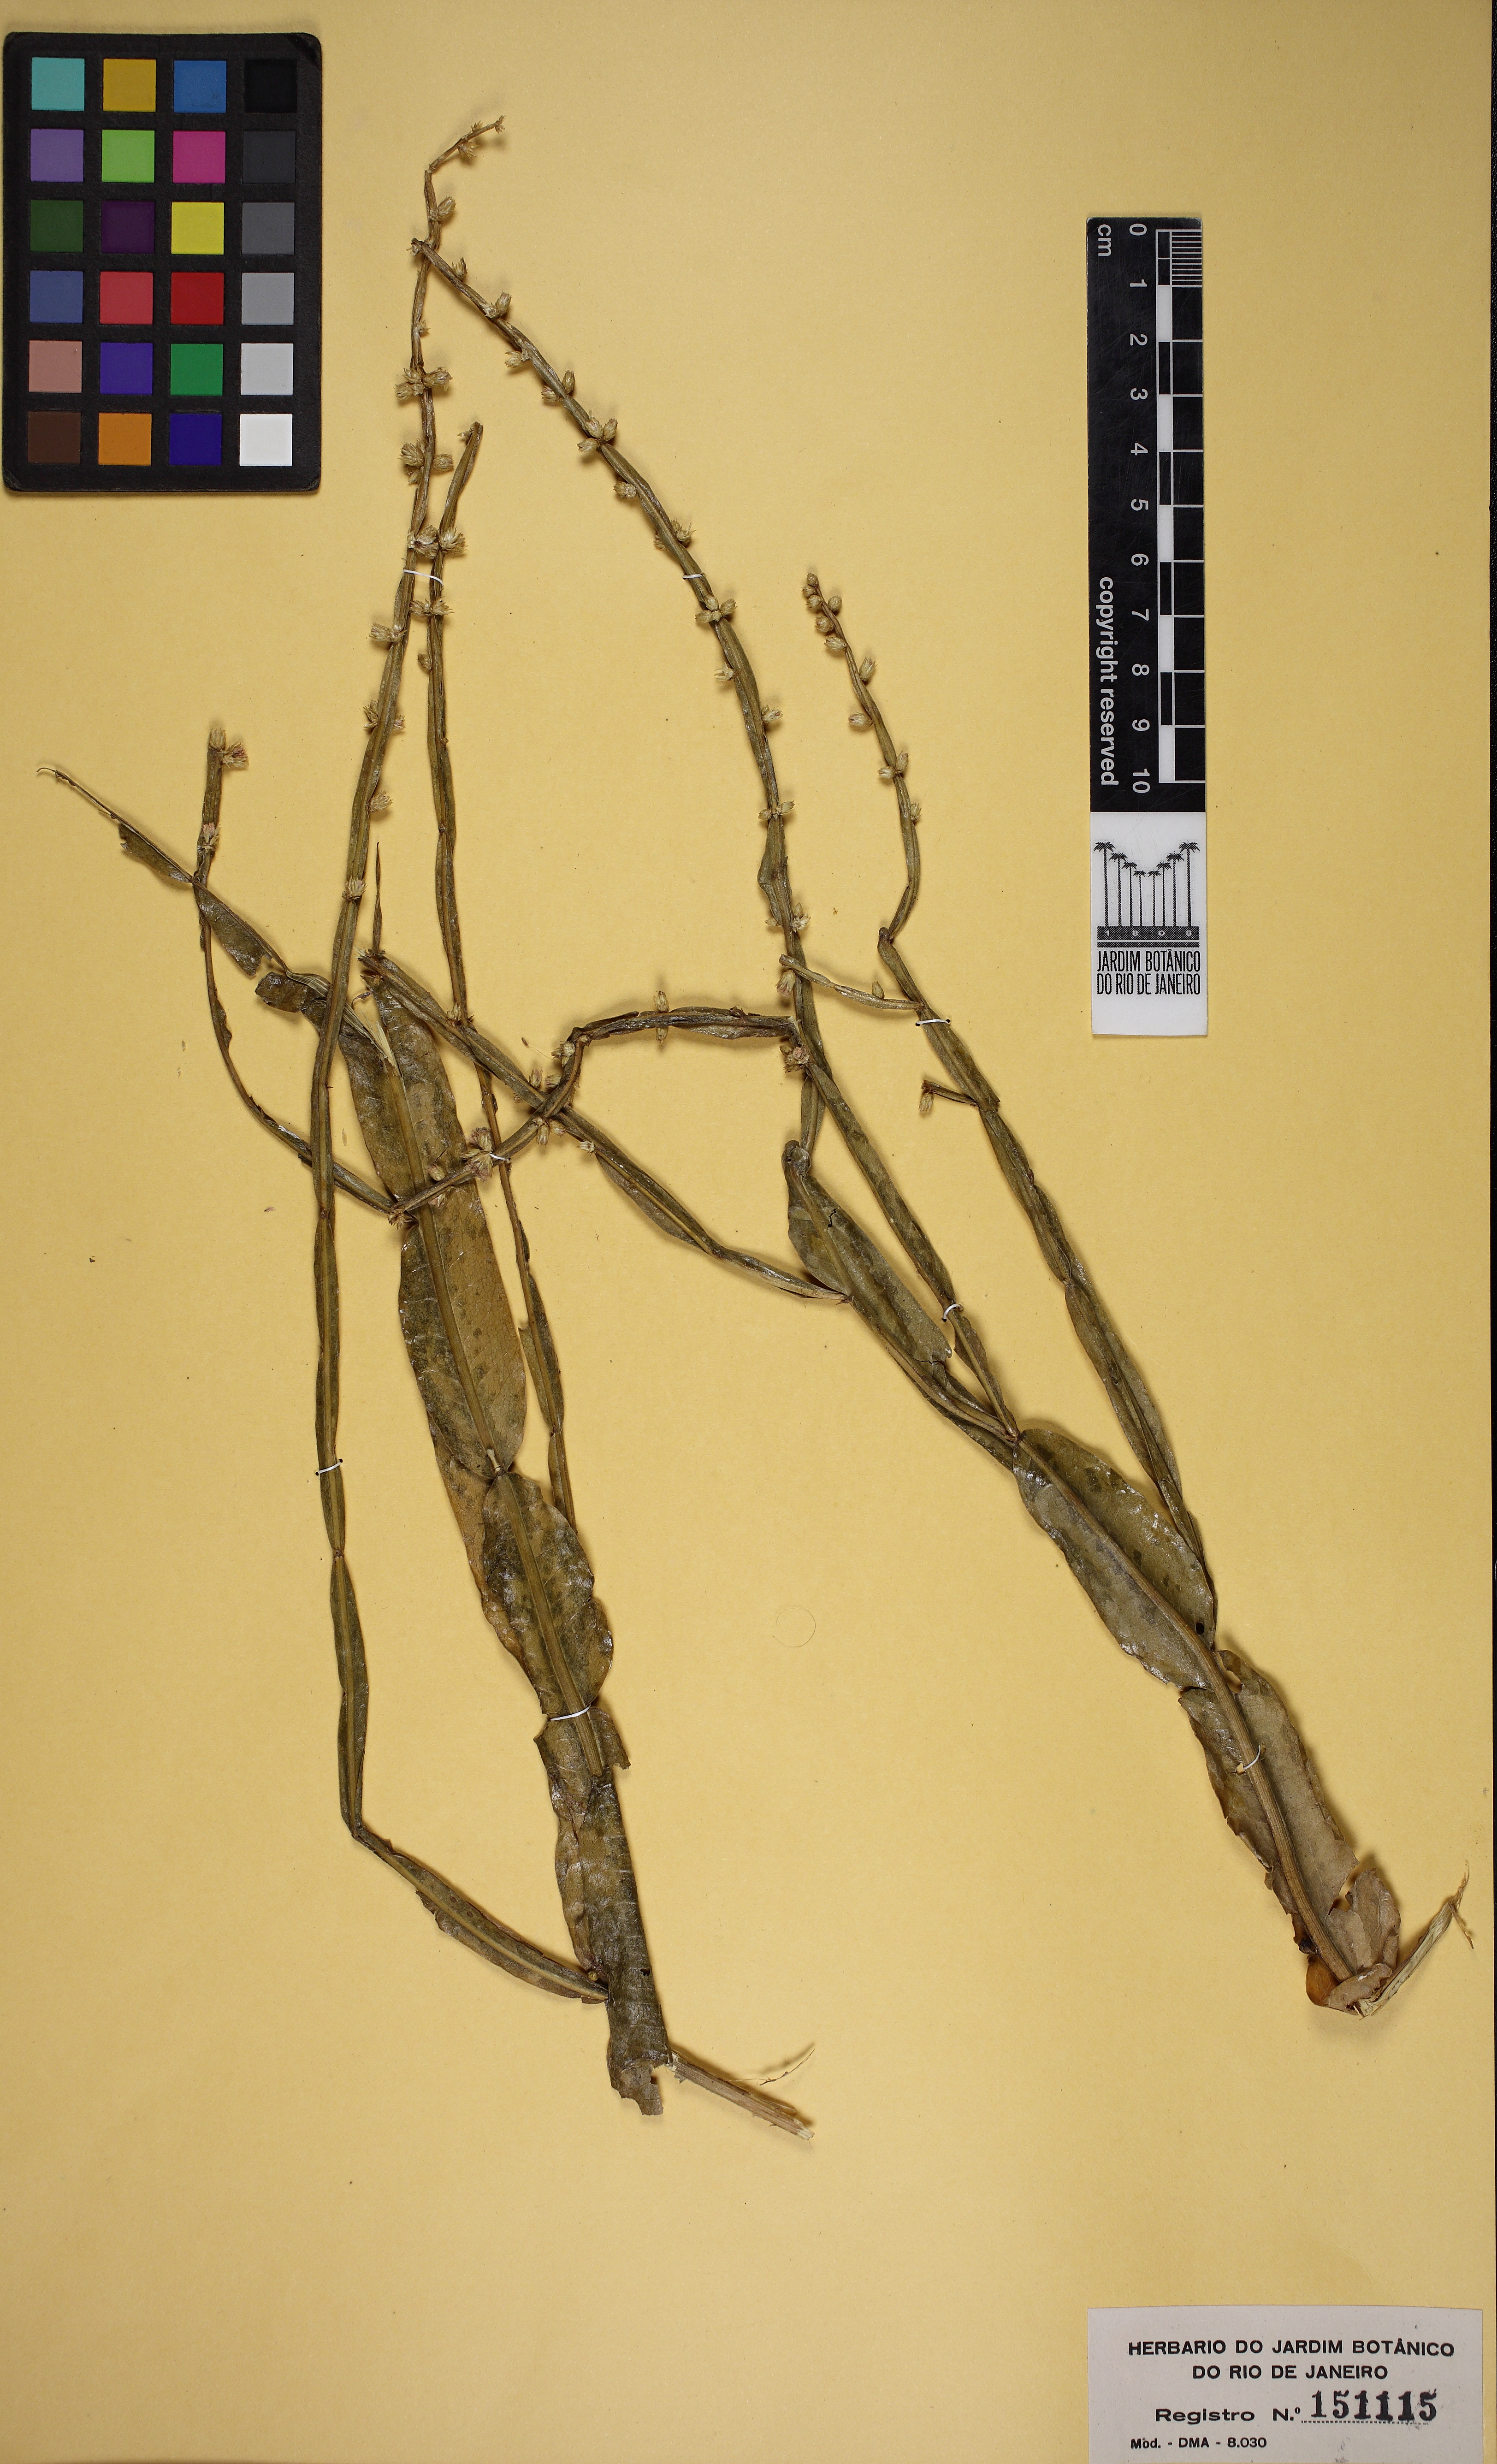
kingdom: Plantae
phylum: Tracheophyta
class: Magnoliopsida
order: Asterales
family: Asteraceae
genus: Baccharis
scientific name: Baccharis crispa
